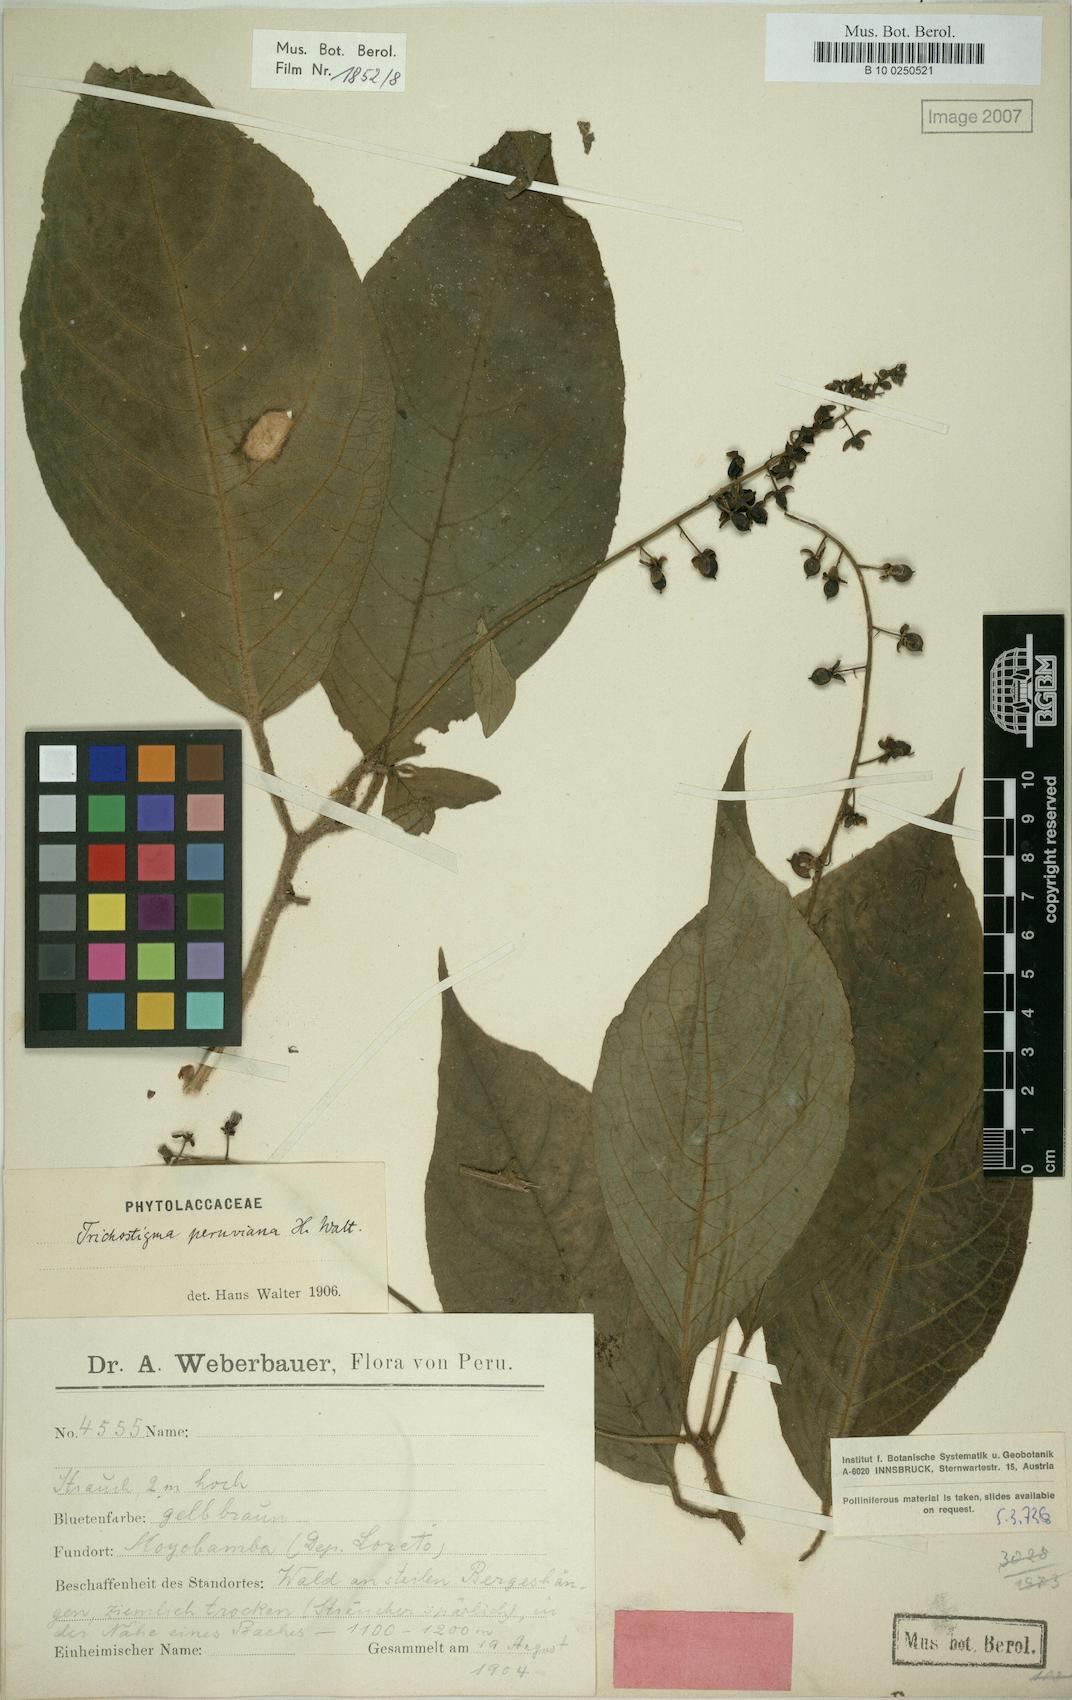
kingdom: Plantae
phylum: Tracheophyta
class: Magnoliopsida
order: Caryophyllales
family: Phytolaccaceae
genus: Trichostigma
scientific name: Trichostigma peruvianum
